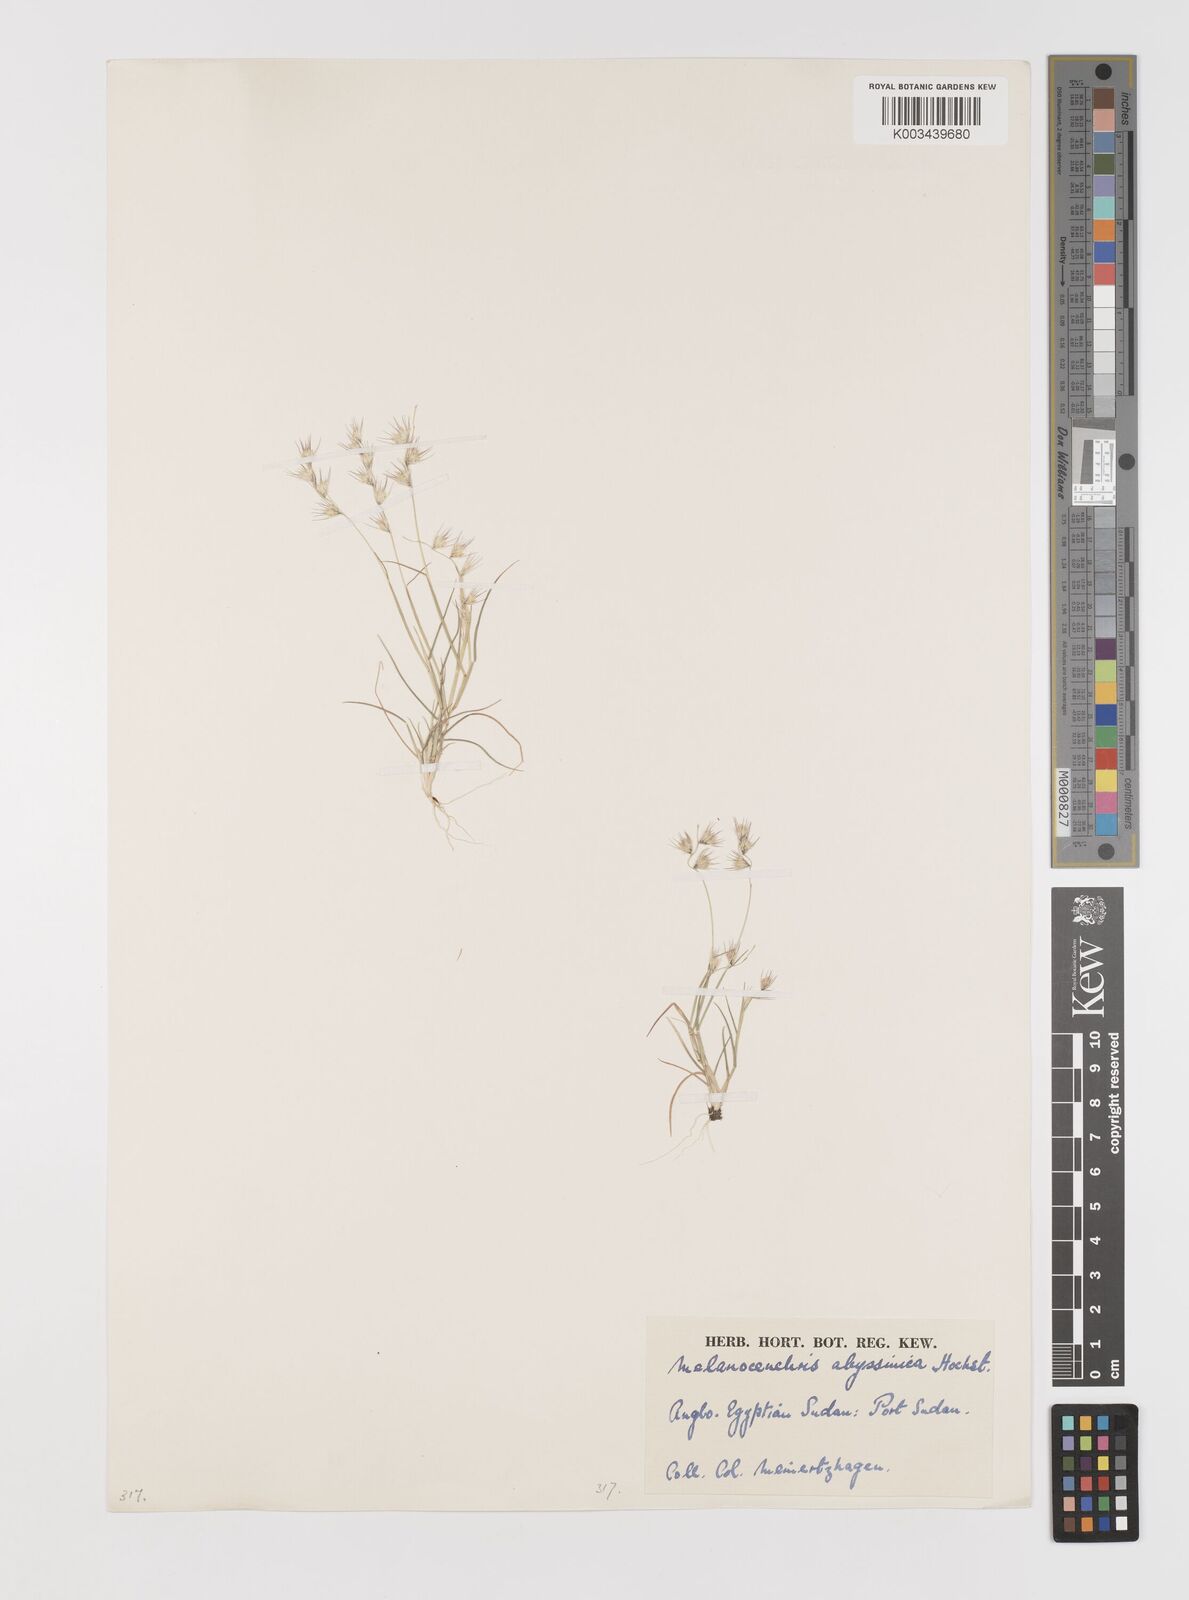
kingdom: Plantae
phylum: Tracheophyta
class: Liliopsida
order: Poales
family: Poaceae
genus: Melanocenchris
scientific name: Melanocenchris abyssinica
